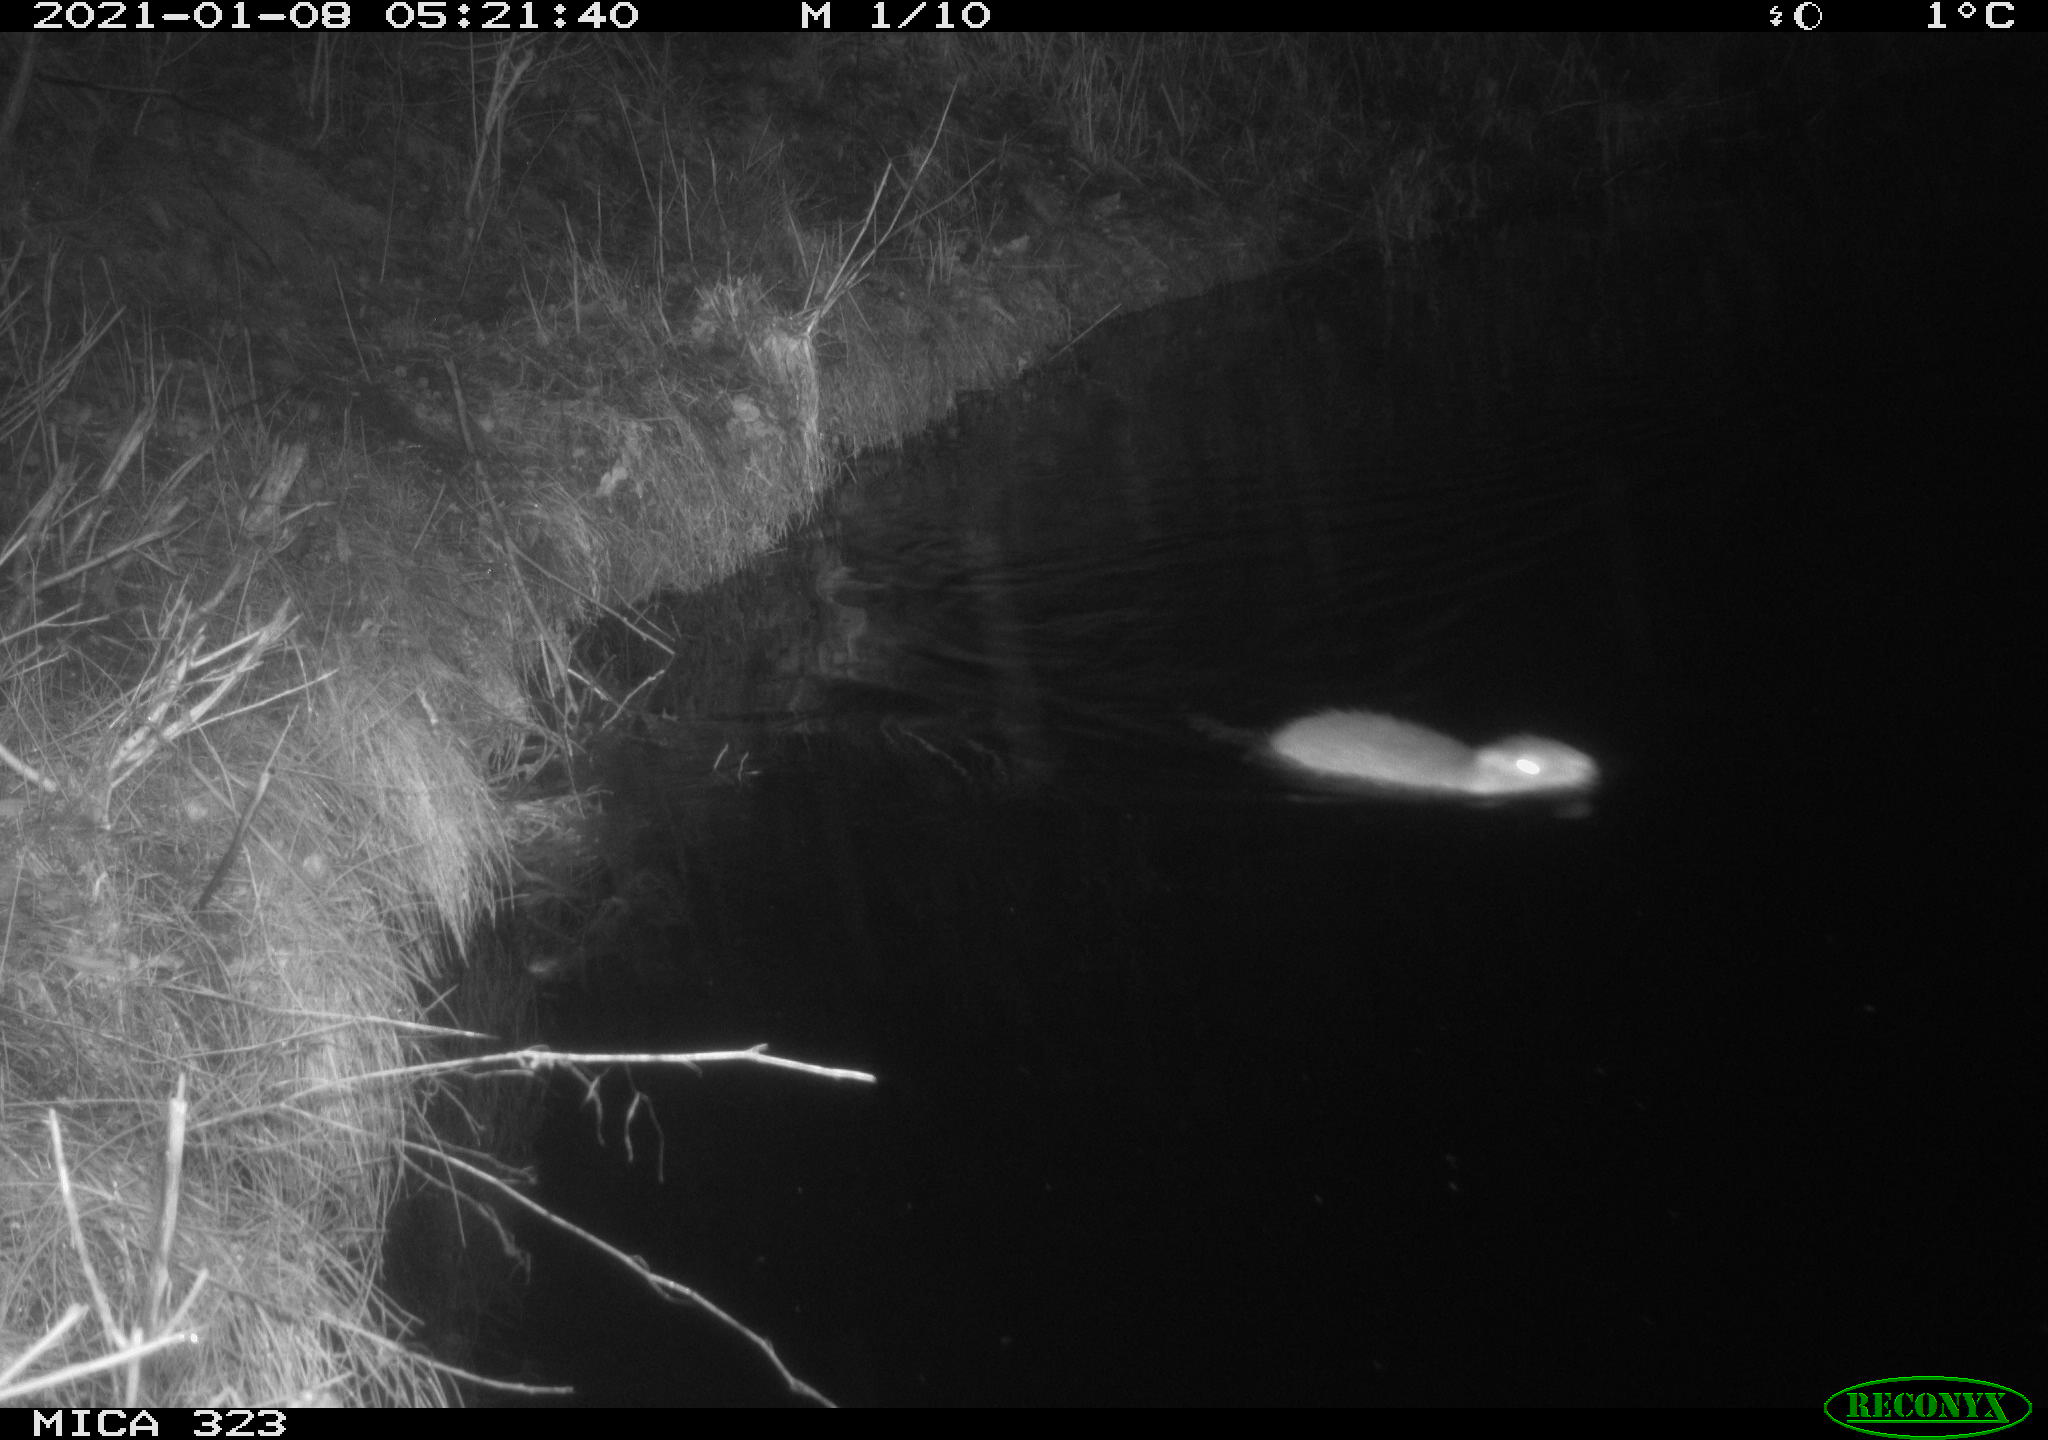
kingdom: Animalia
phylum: Chordata
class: Mammalia
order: Rodentia
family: Myocastoridae
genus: Myocastor
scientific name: Myocastor coypus
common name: Coypu
